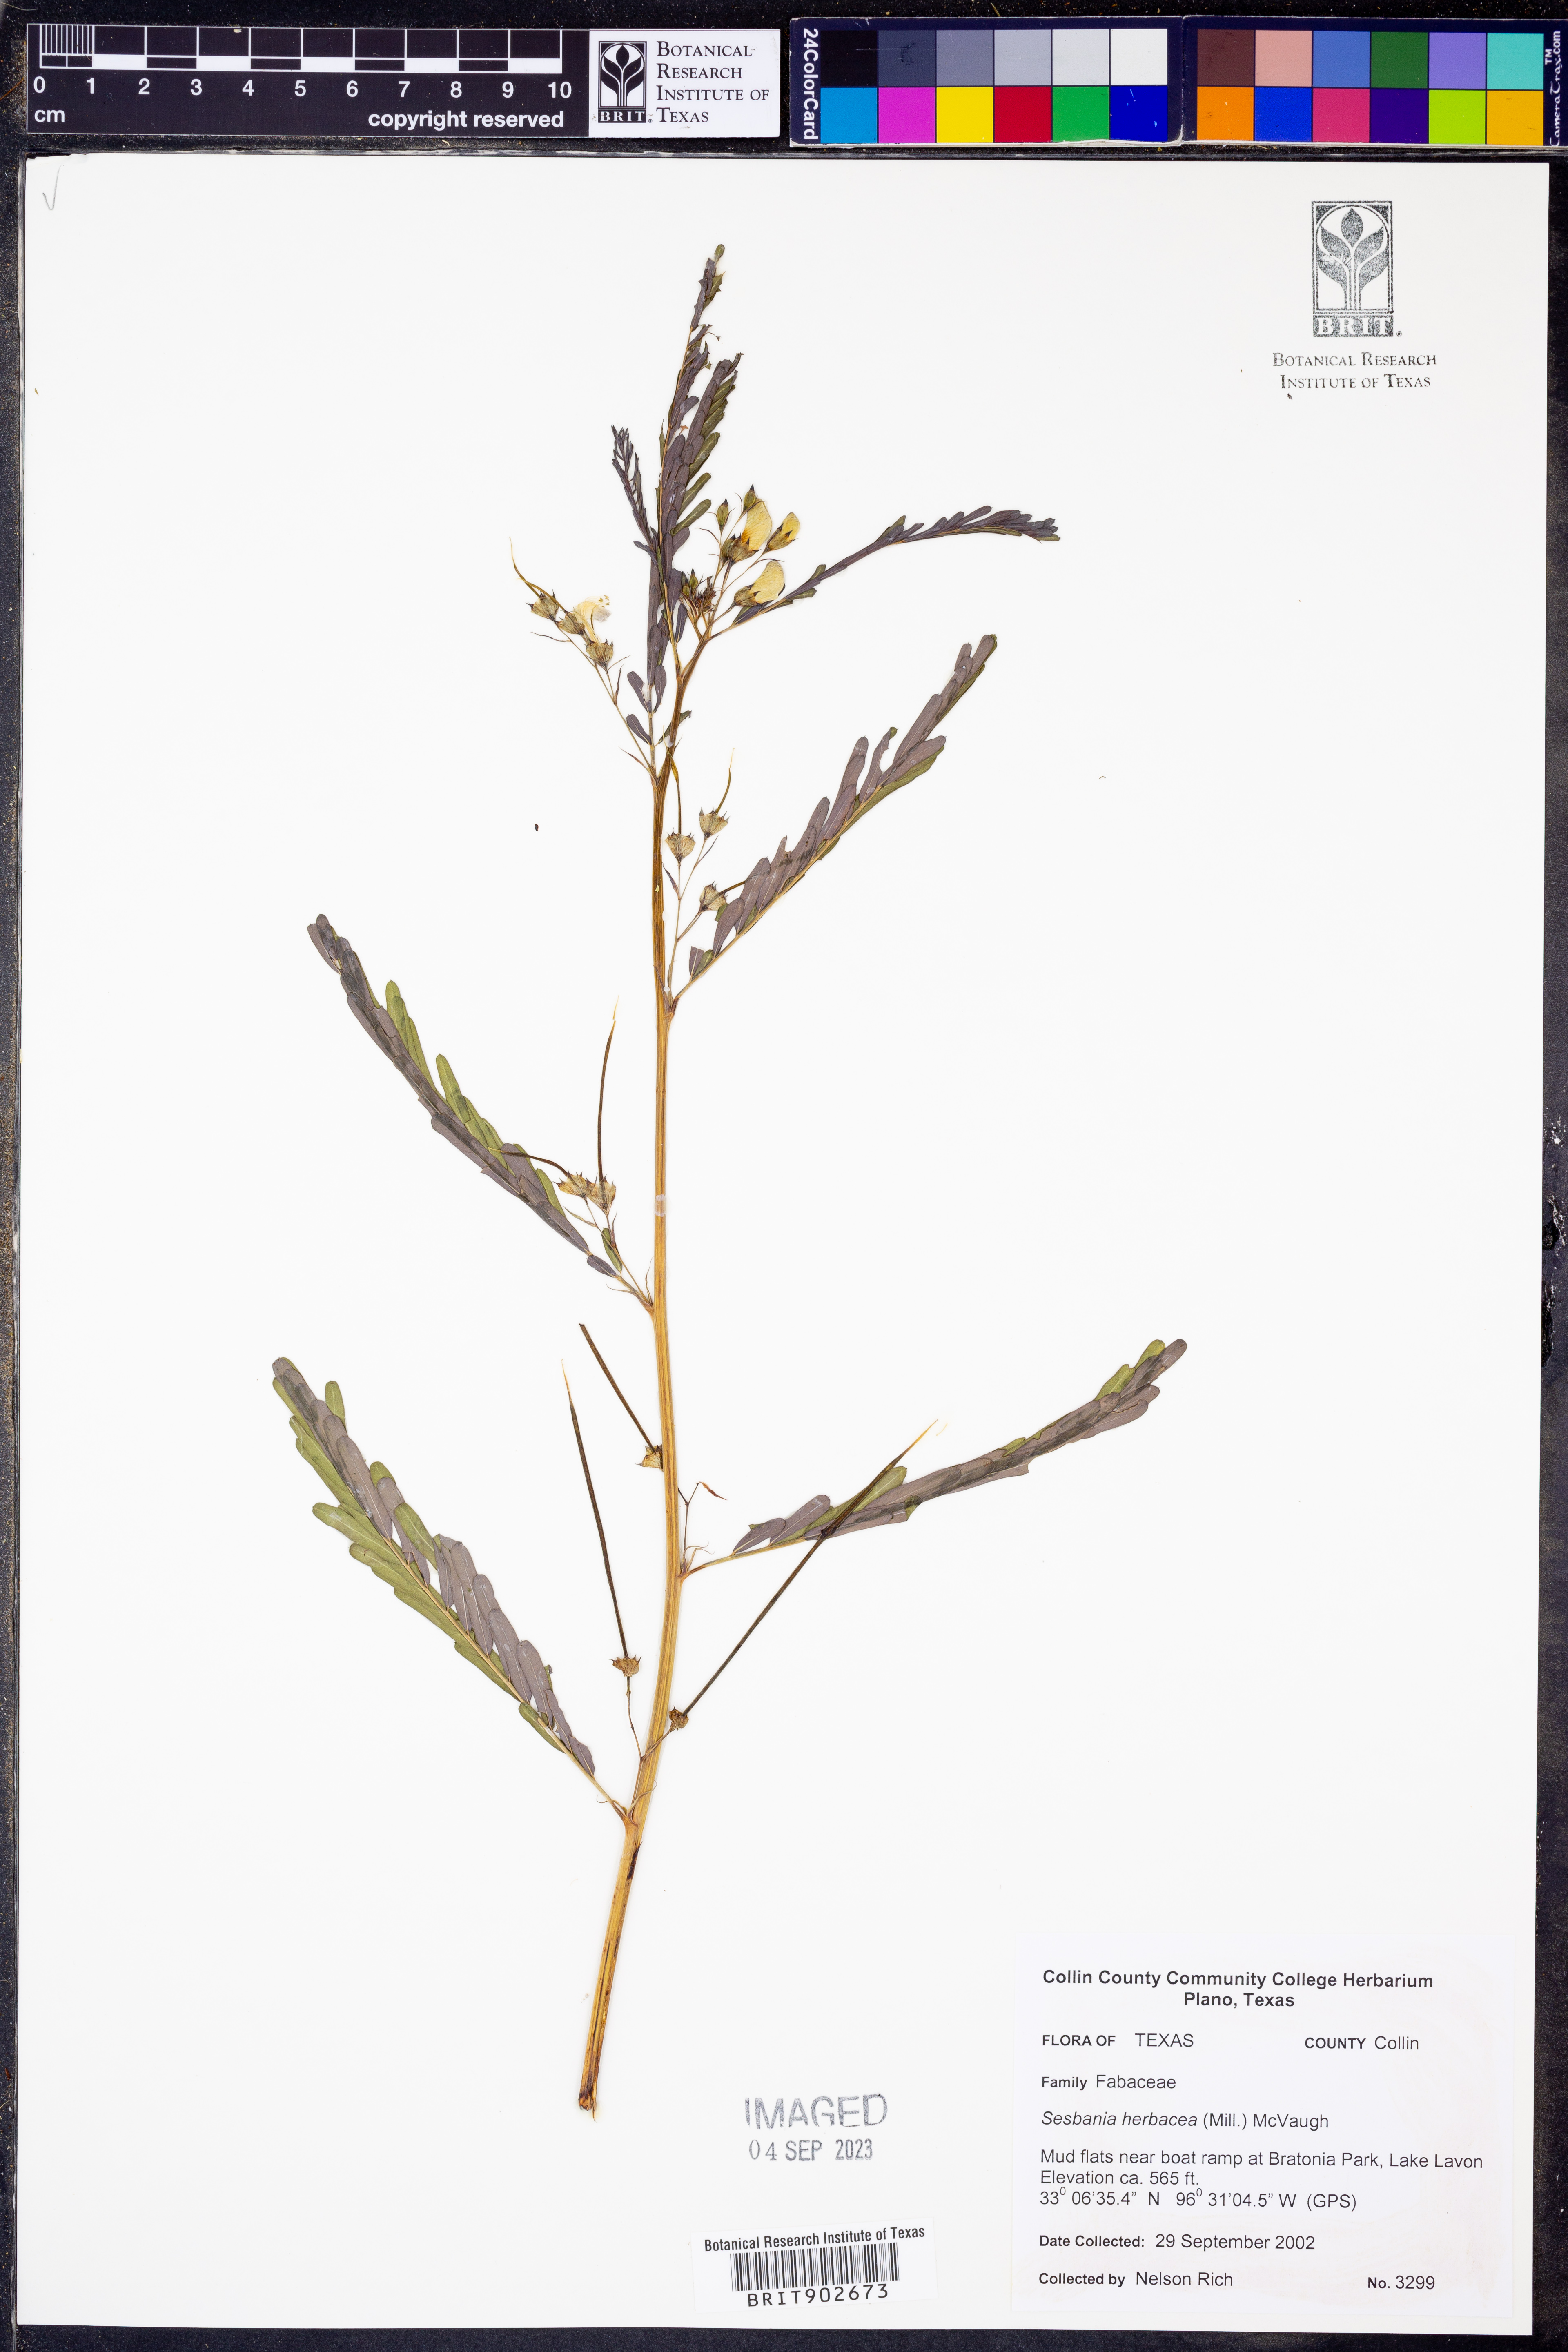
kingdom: Plantae
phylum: Tracheophyta
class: Magnoliopsida
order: Fabales
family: Fabaceae
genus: Sesbania
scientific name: Sesbania herbacea
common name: Bigpod sesbania
